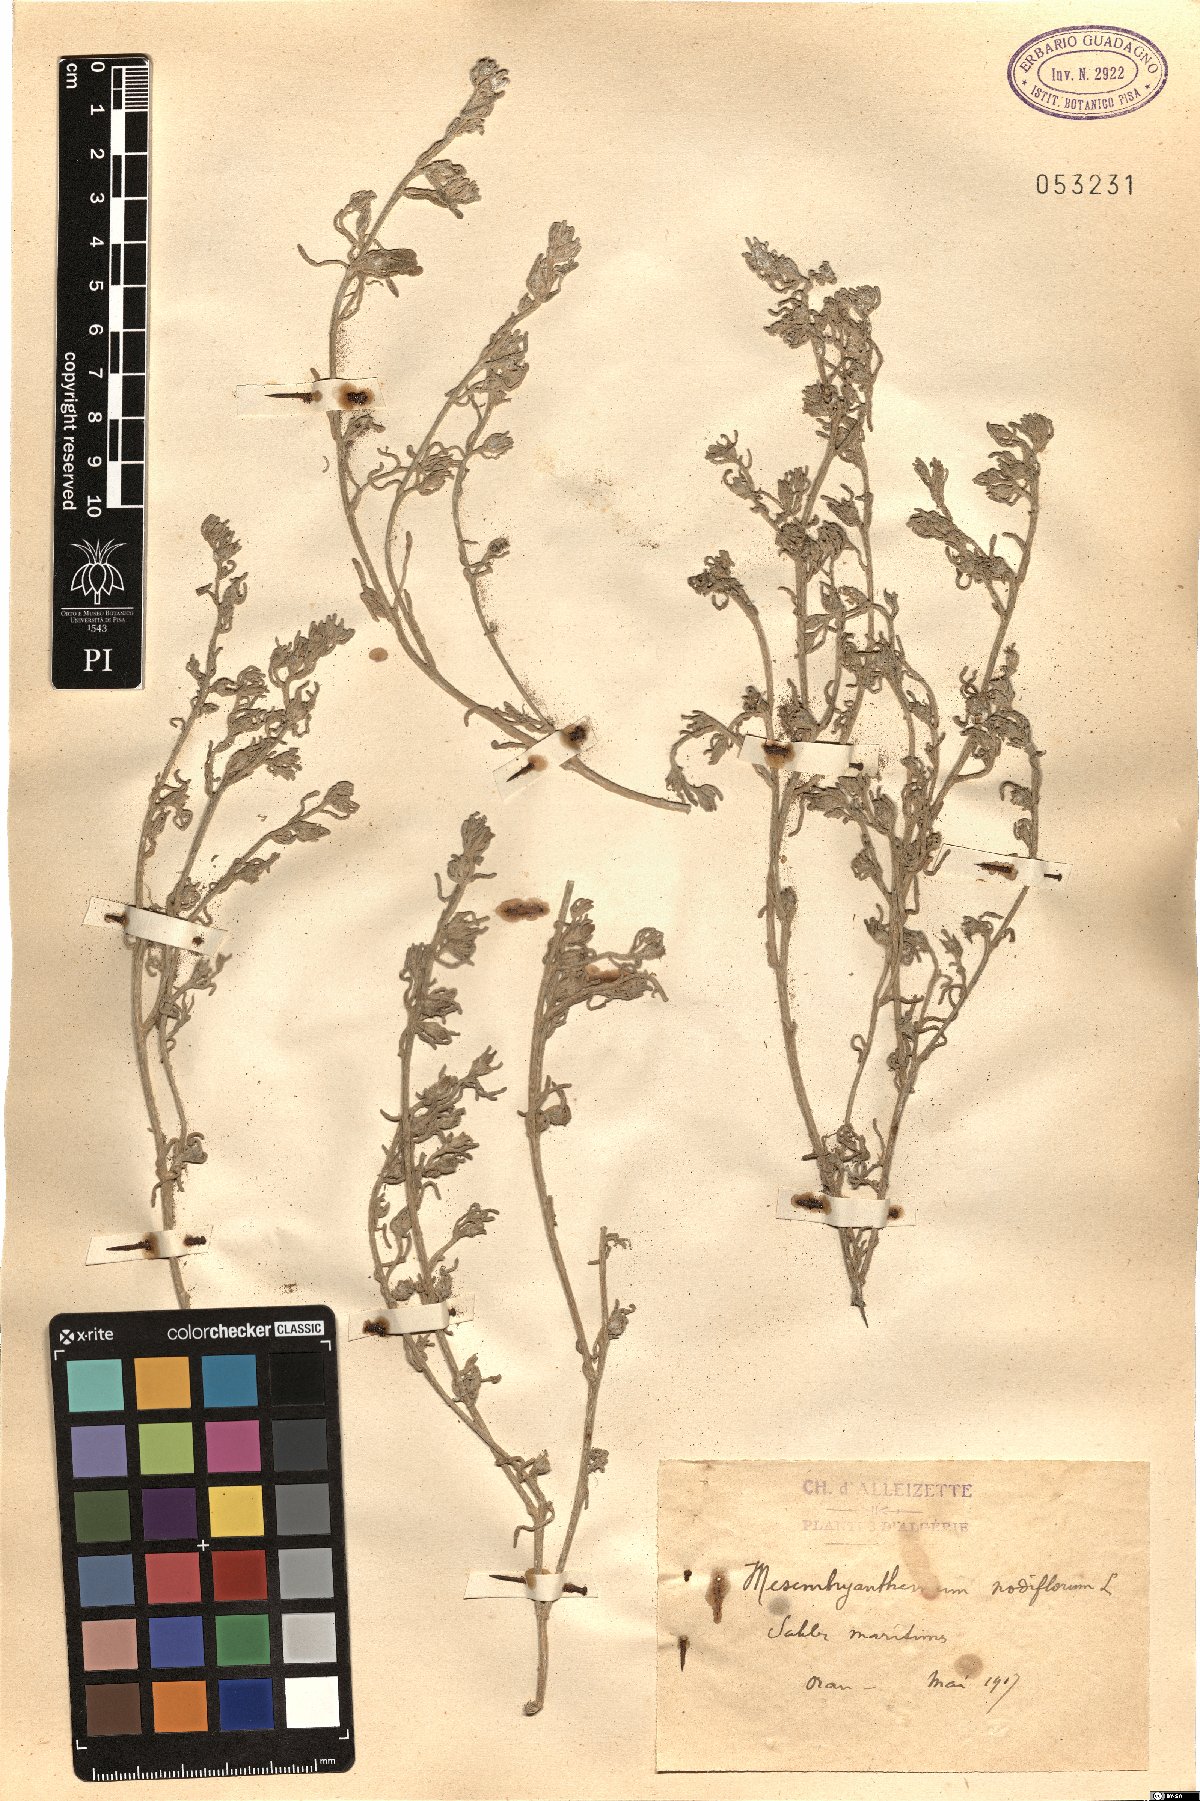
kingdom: Plantae
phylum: Tracheophyta
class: Magnoliopsida
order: Caryophyllales
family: Aizoaceae
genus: Mesembryanthemum
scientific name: Mesembryanthemum nodiflorum
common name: Slenderleaf iceplant
